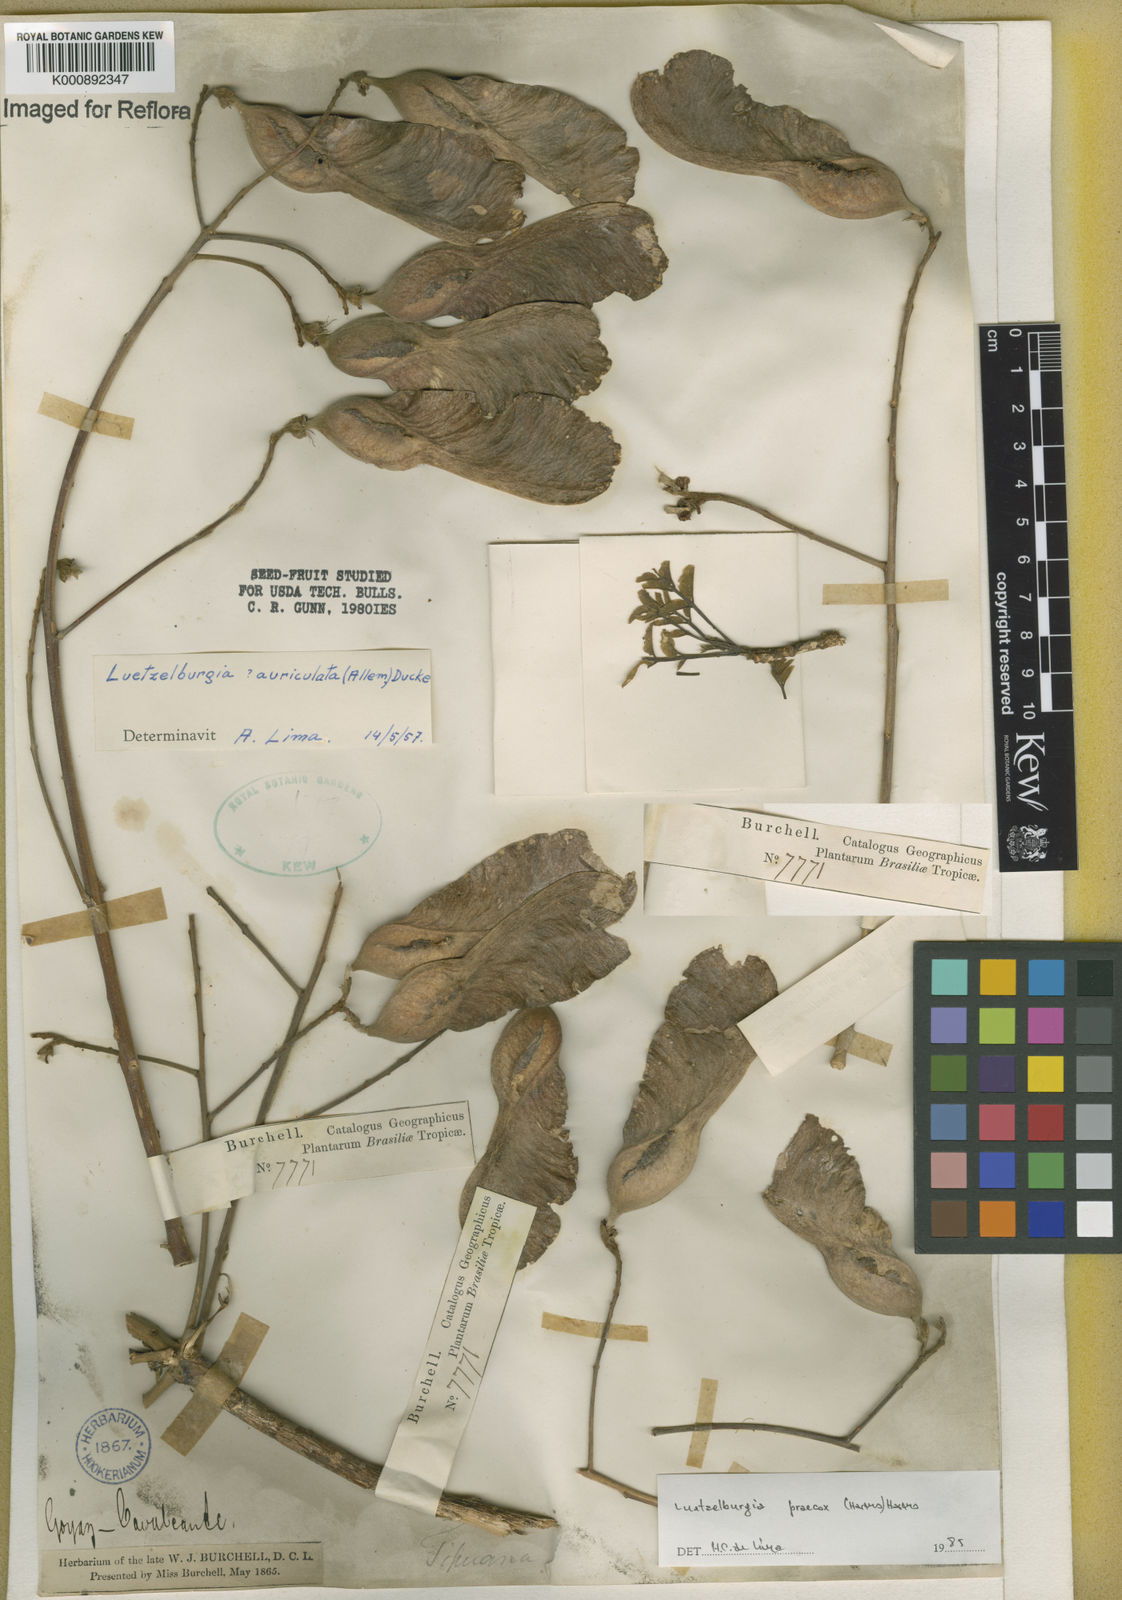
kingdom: Plantae
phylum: Tracheophyta
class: Magnoliopsida
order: Fabales
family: Fabaceae
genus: Luetzelburgia
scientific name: Luetzelburgia praecox
